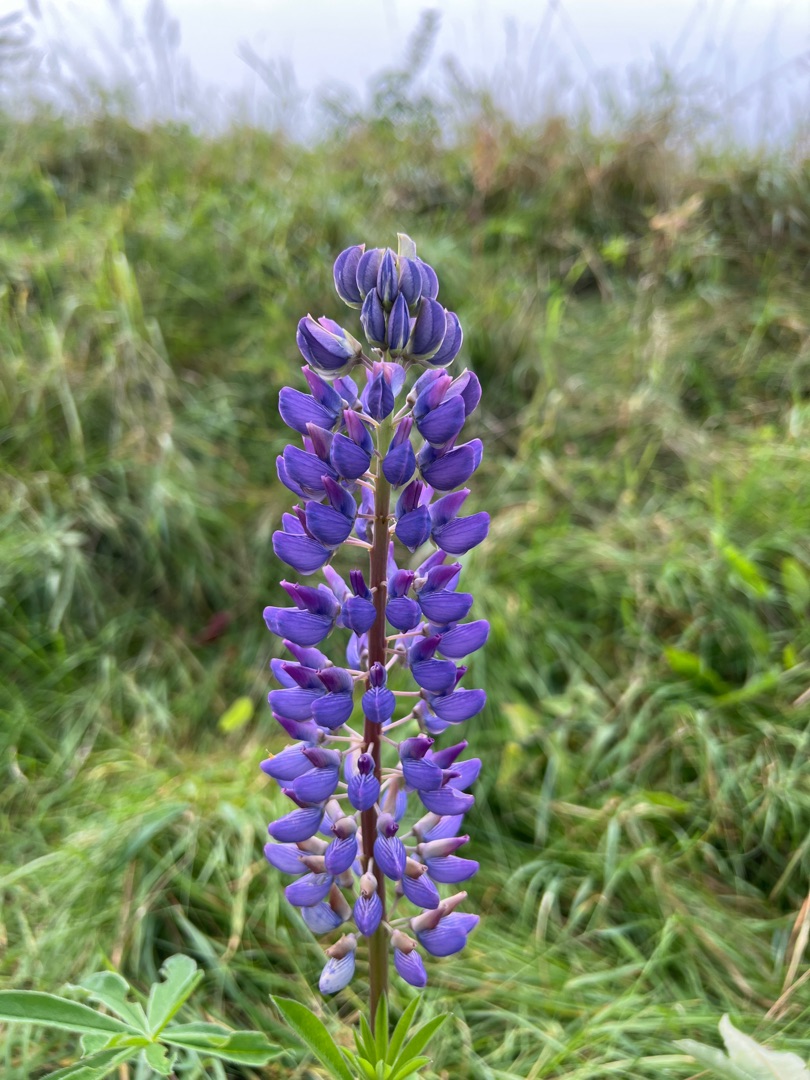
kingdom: Plantae
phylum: Tracheophyta
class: Magnoliopsida
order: Fabales
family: Fabaceae
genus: Lupinus
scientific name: Lupinus polyphyllus
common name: Mangebladet lupin
